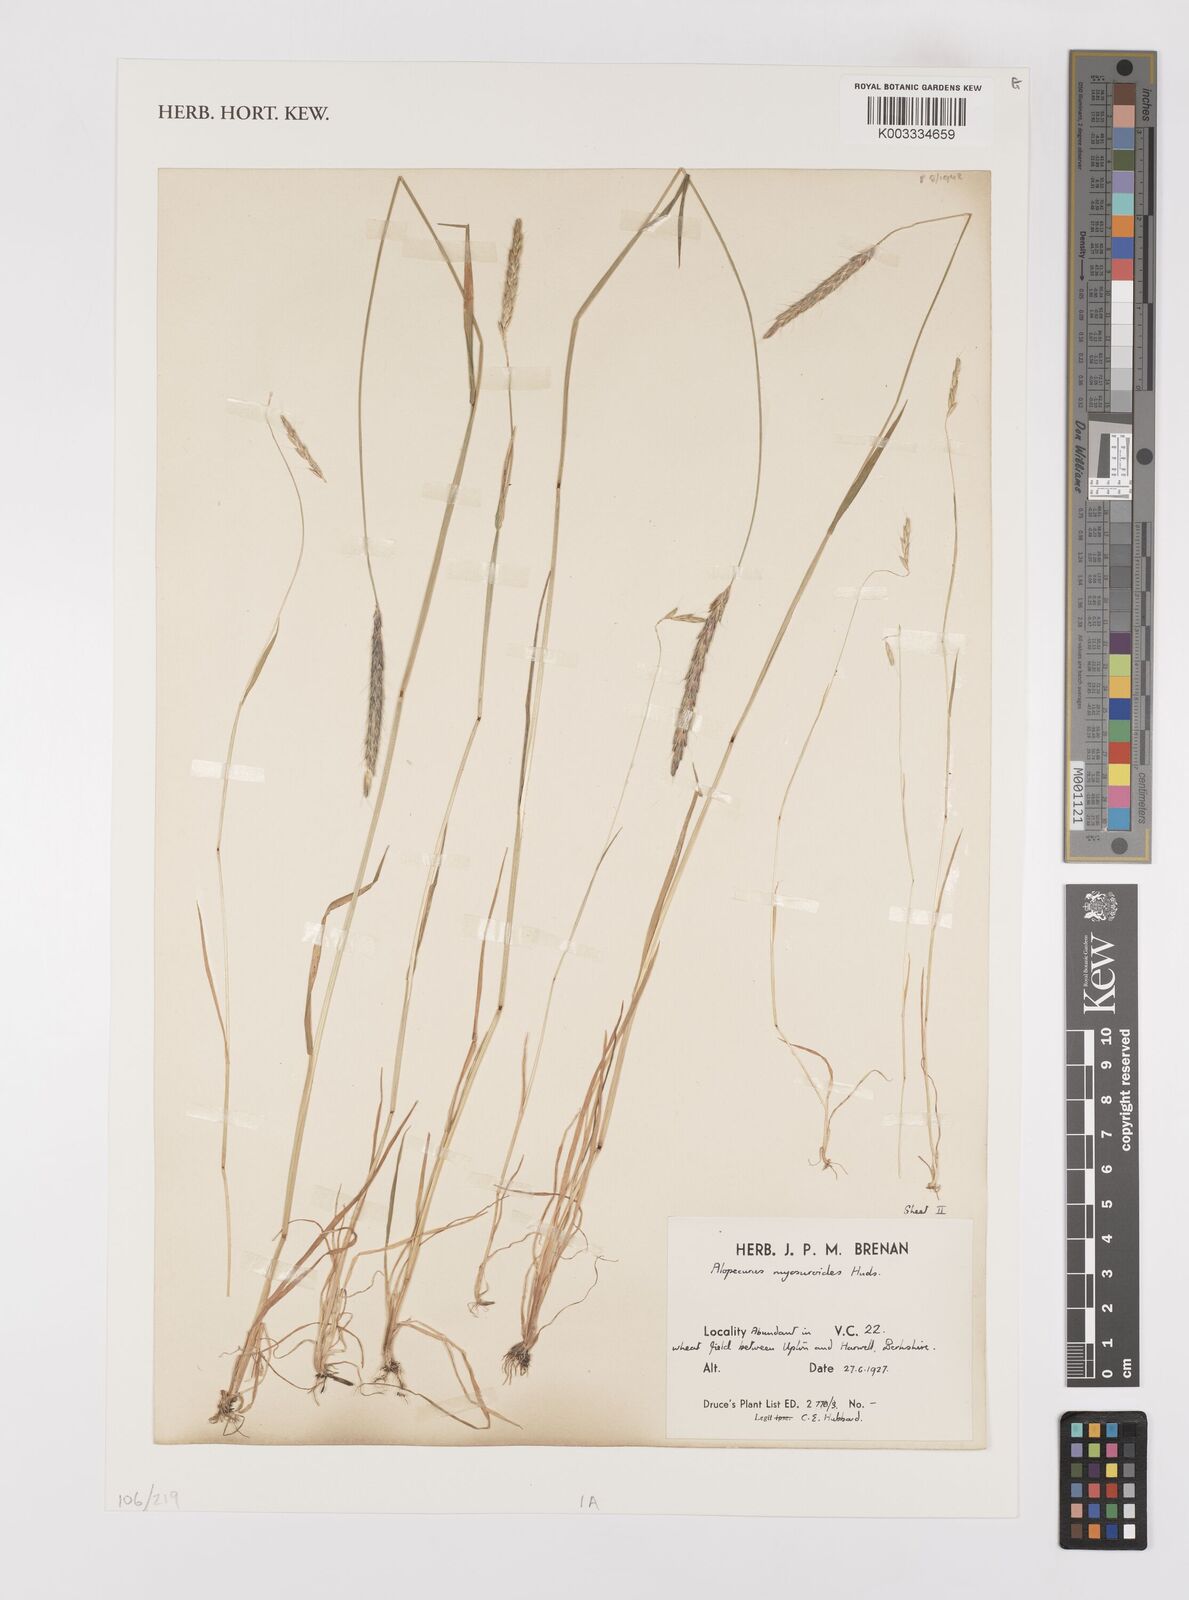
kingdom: Plantae
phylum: Tracheophyta
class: Liliopsida
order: Poales
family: Poaceae
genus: Alopecurus
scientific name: Alopecurus myosuroides
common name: Black-grass
